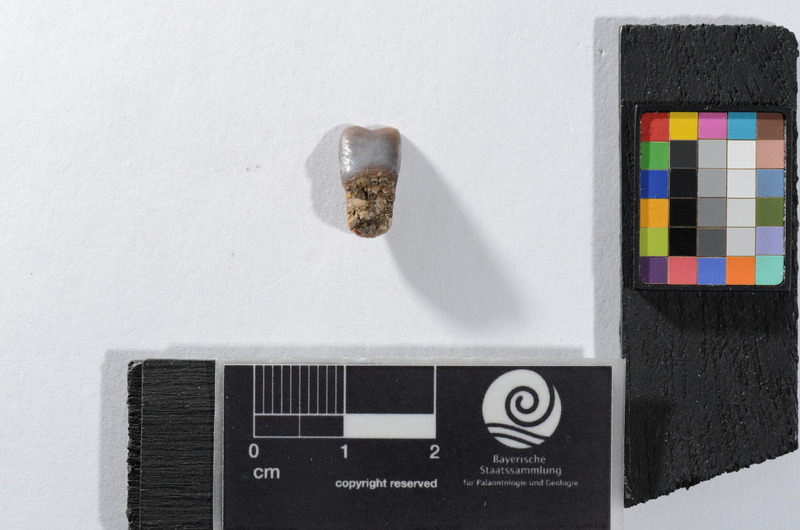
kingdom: Animalia
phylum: Chordata
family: Semionotidae
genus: Sargodon
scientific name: Sargodon tomicus
